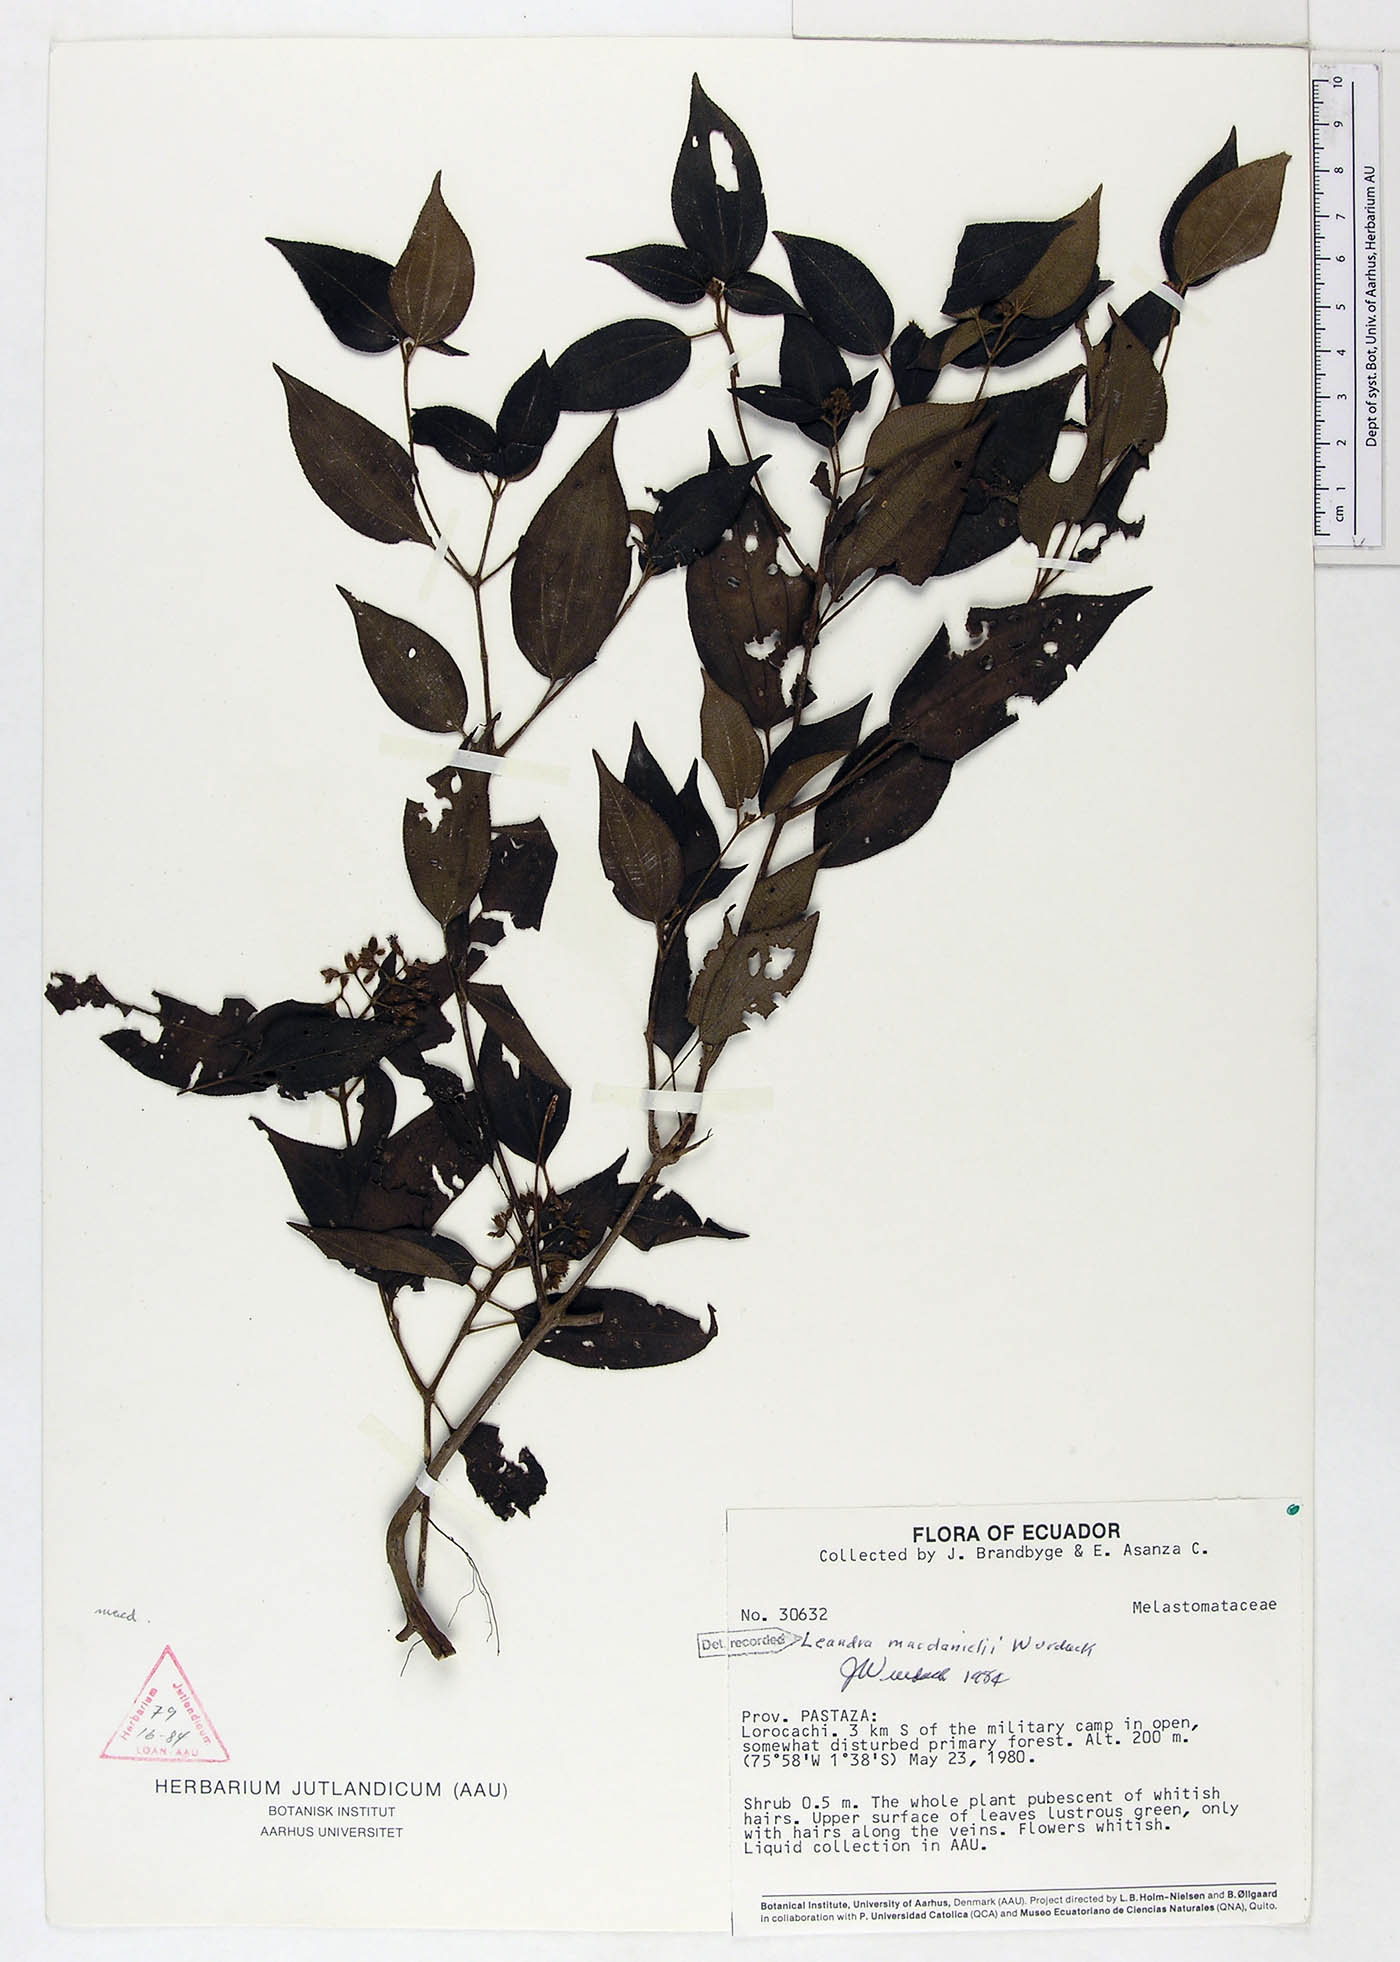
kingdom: Plantae
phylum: Tracheophyta
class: Magnoliopsida
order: Myrtales
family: Melastomataceae
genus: Miconia
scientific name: Miconia secunmacdanielii
